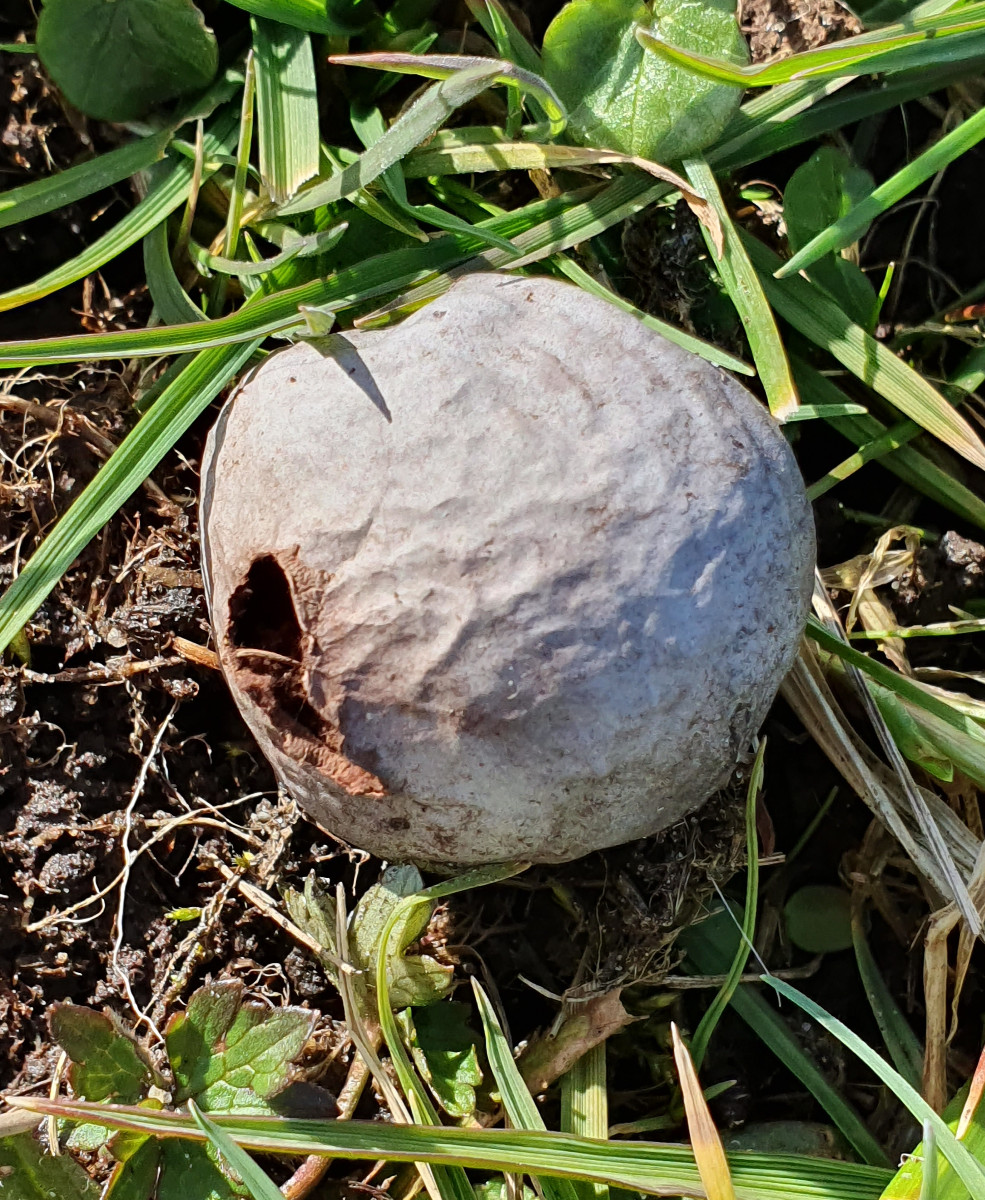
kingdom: Fungi
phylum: Basidiomycota
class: Agaricomycetes
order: Agaricales
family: Lycoperdaceae
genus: Bovista
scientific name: Bovista plumbea
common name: blygrå bovist
